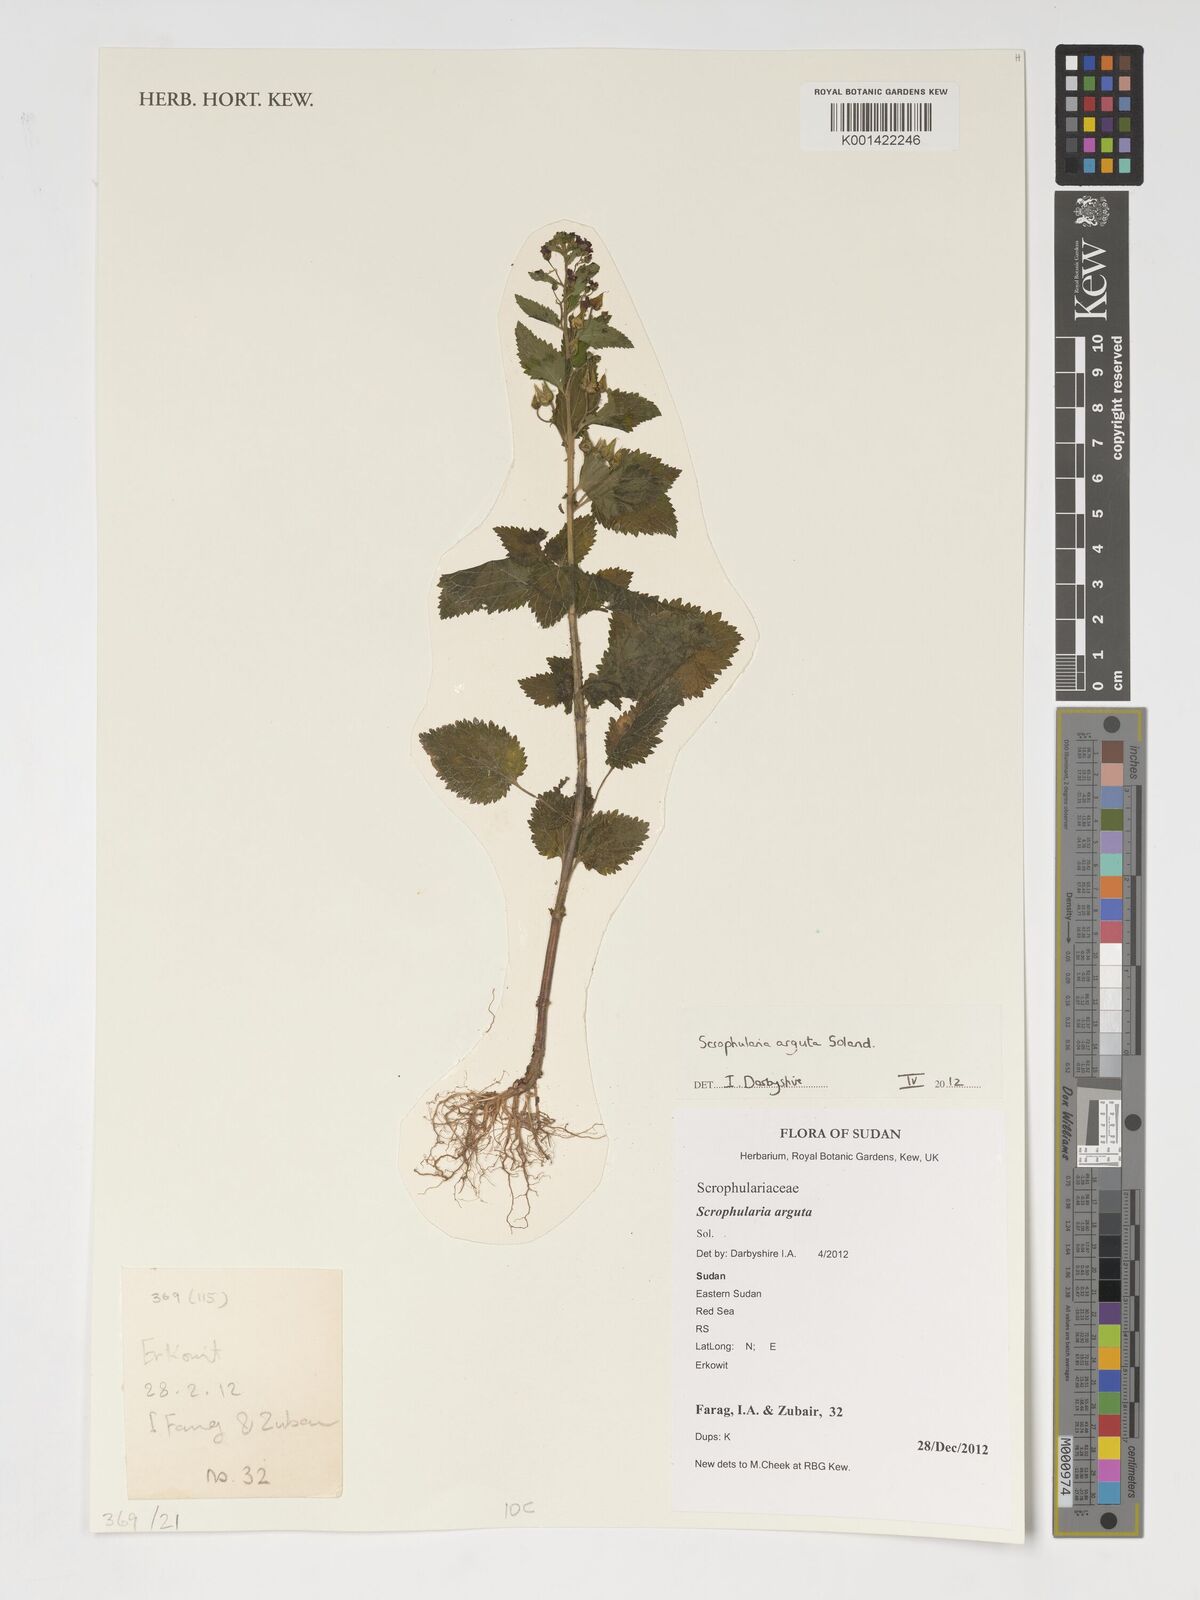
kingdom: Plantae
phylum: Tracheophyta
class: Magnoliopsida
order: Lamiales
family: Scrophulariaceae
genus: Scrophularia
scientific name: Scrophularia arguta
